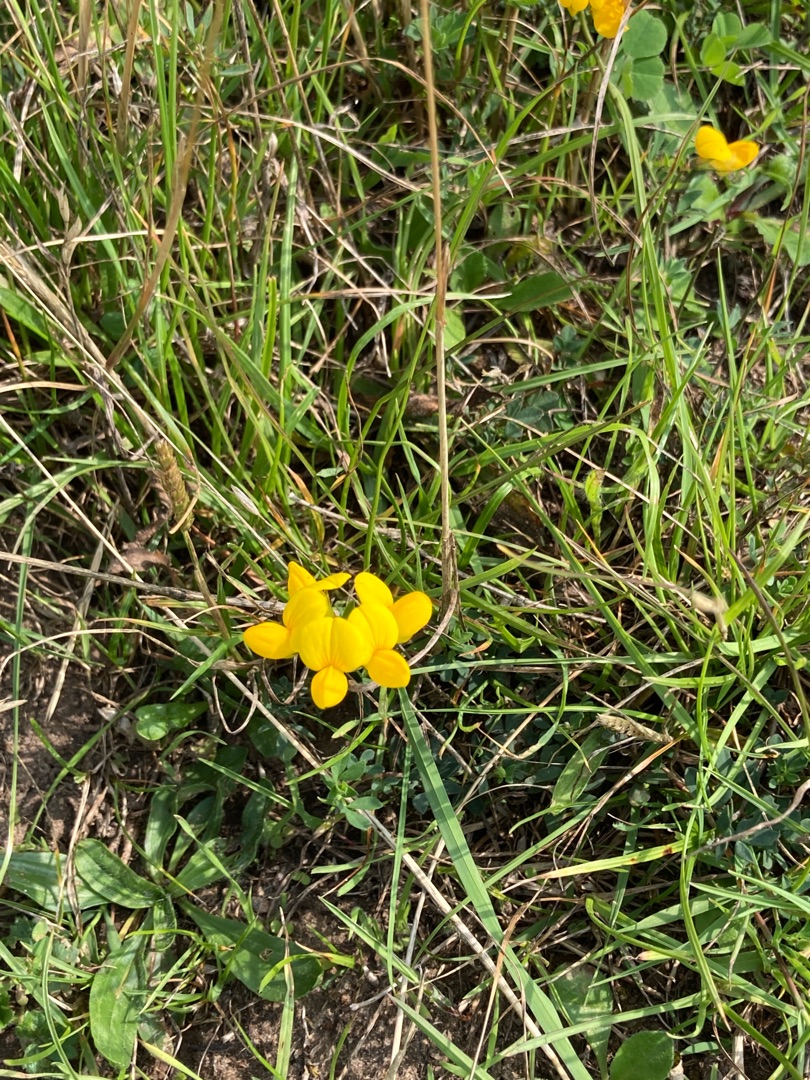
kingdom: Plantae
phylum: Tracheophyta
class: Magnoliopsida
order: Fabales
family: Fabaceae
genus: Lotus
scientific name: Lotus corniculatus
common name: Almindelig kællingetand
